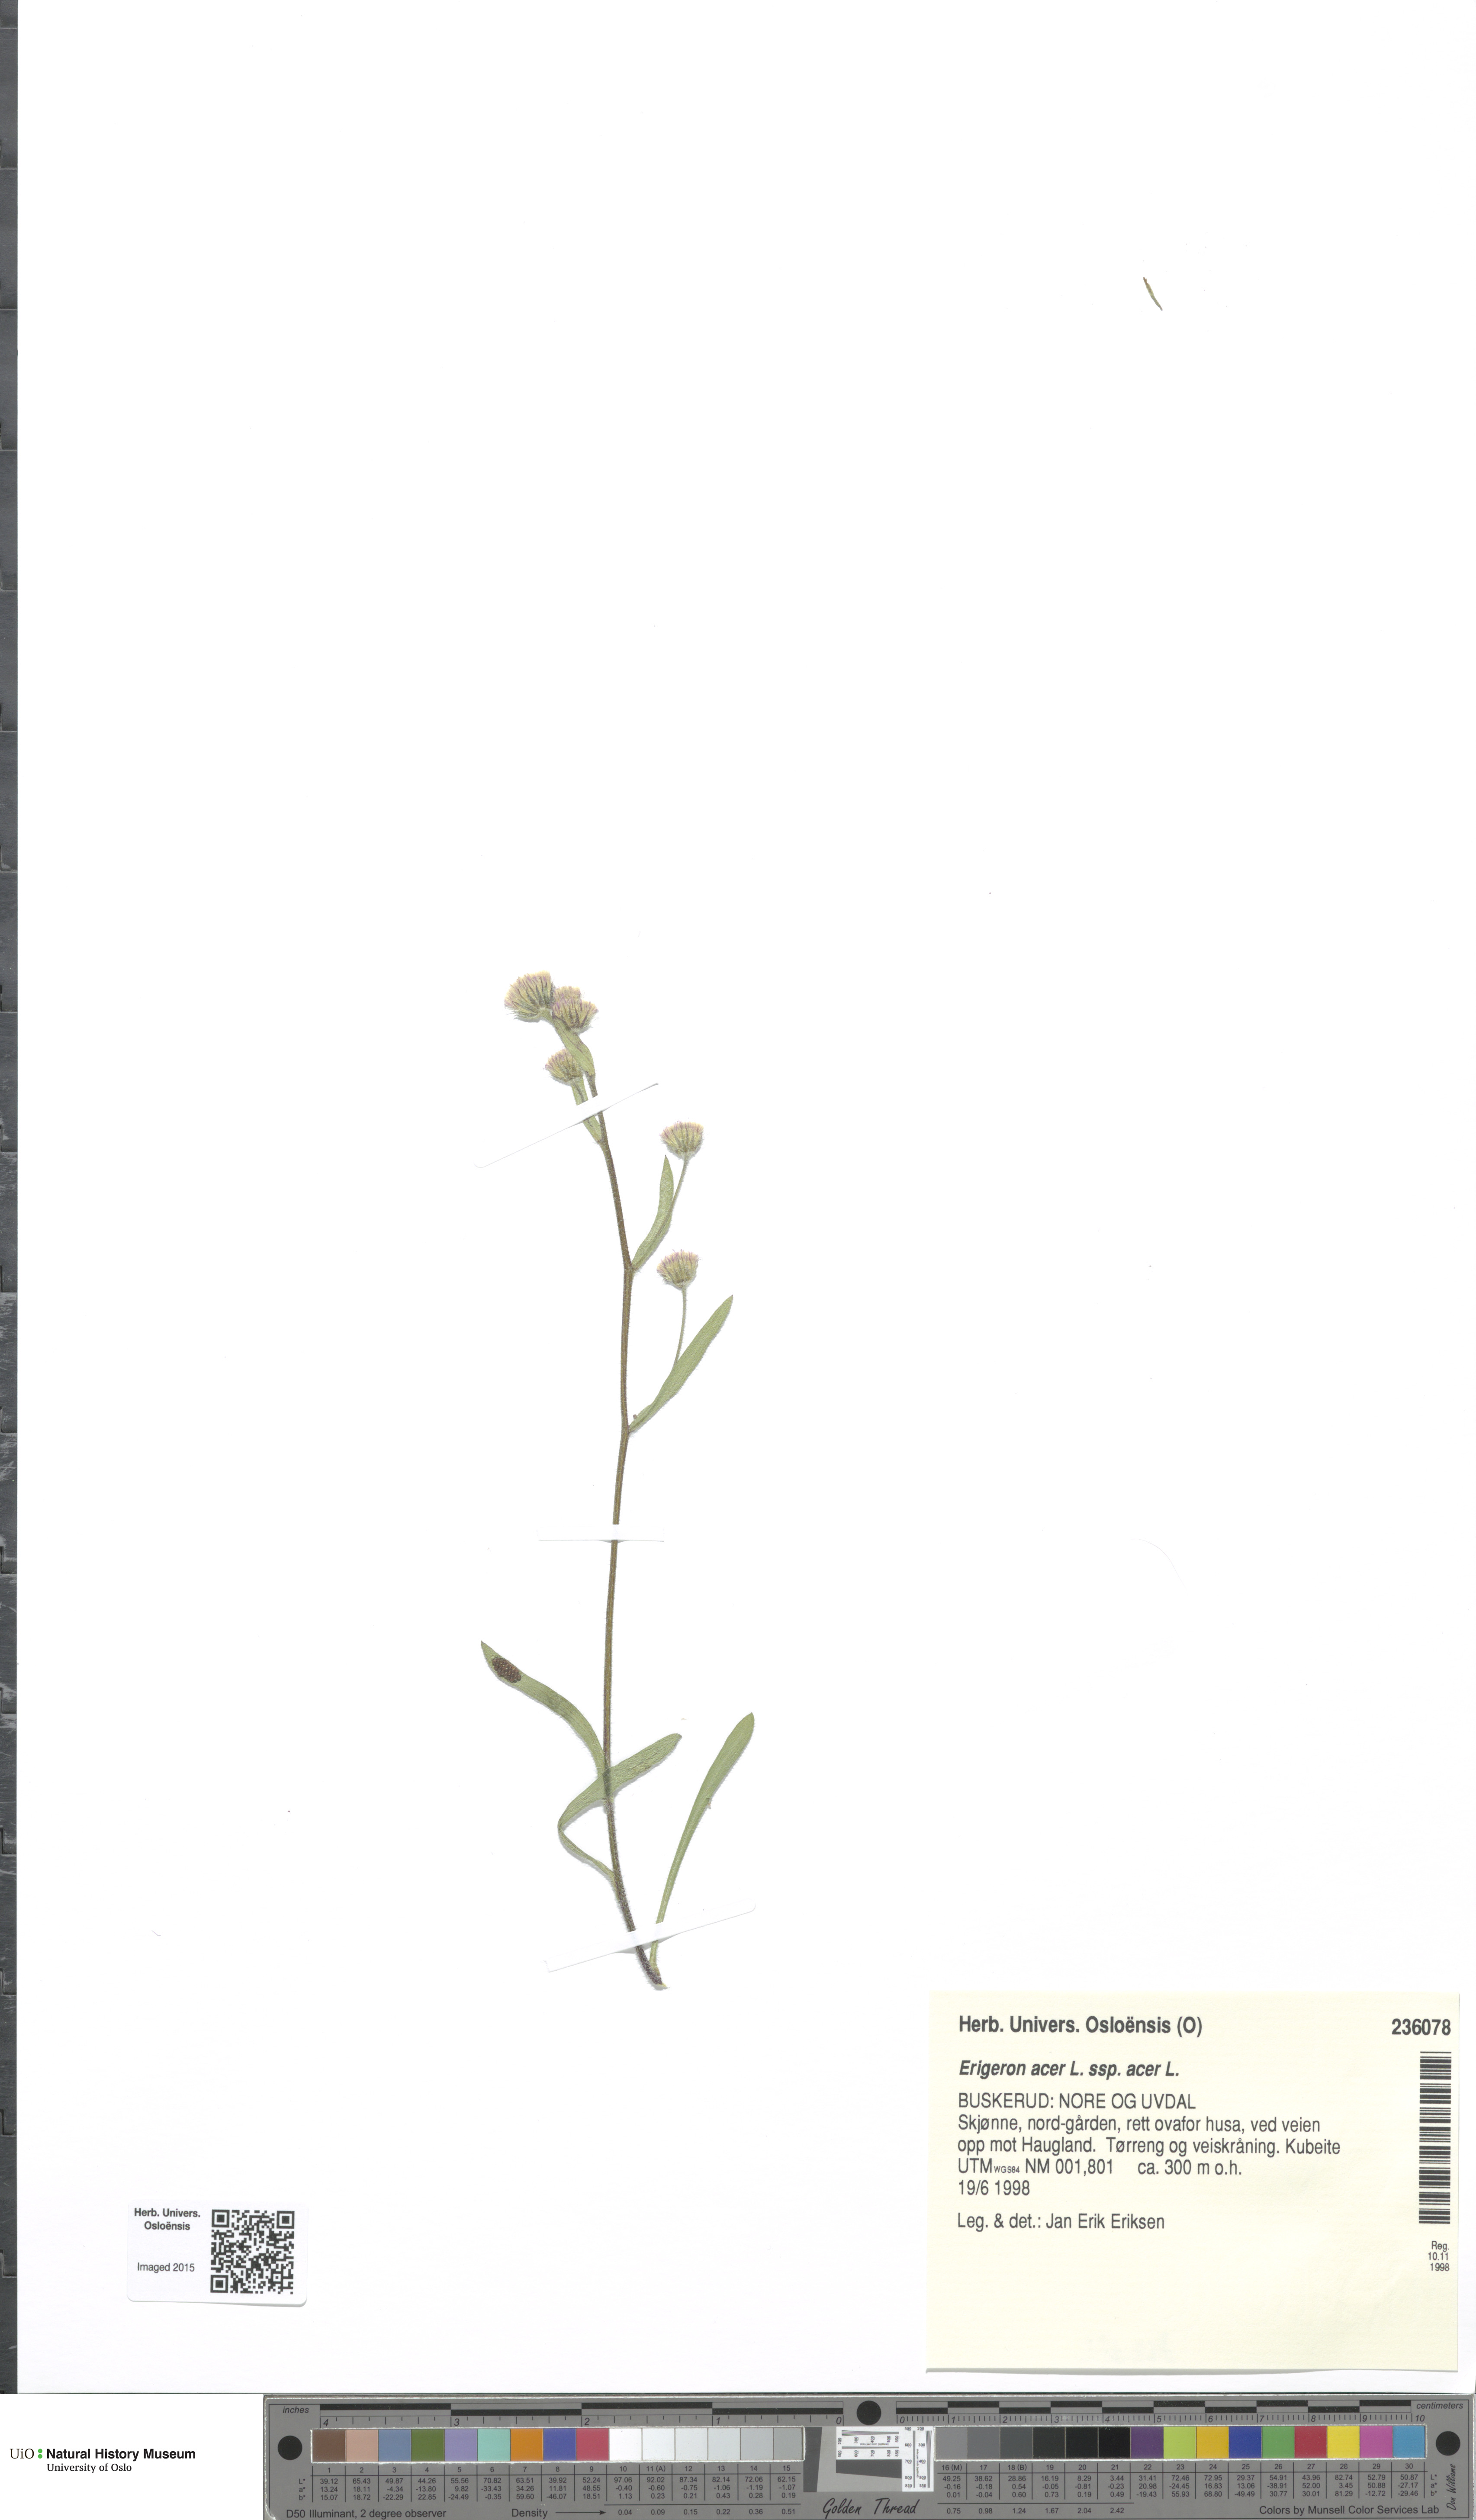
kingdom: Plantae
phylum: Tracheophyta
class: Magnoliopsida
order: Asterales
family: Asteraceae
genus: Erigeron
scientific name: Erigeron acris
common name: Blue fleabane
